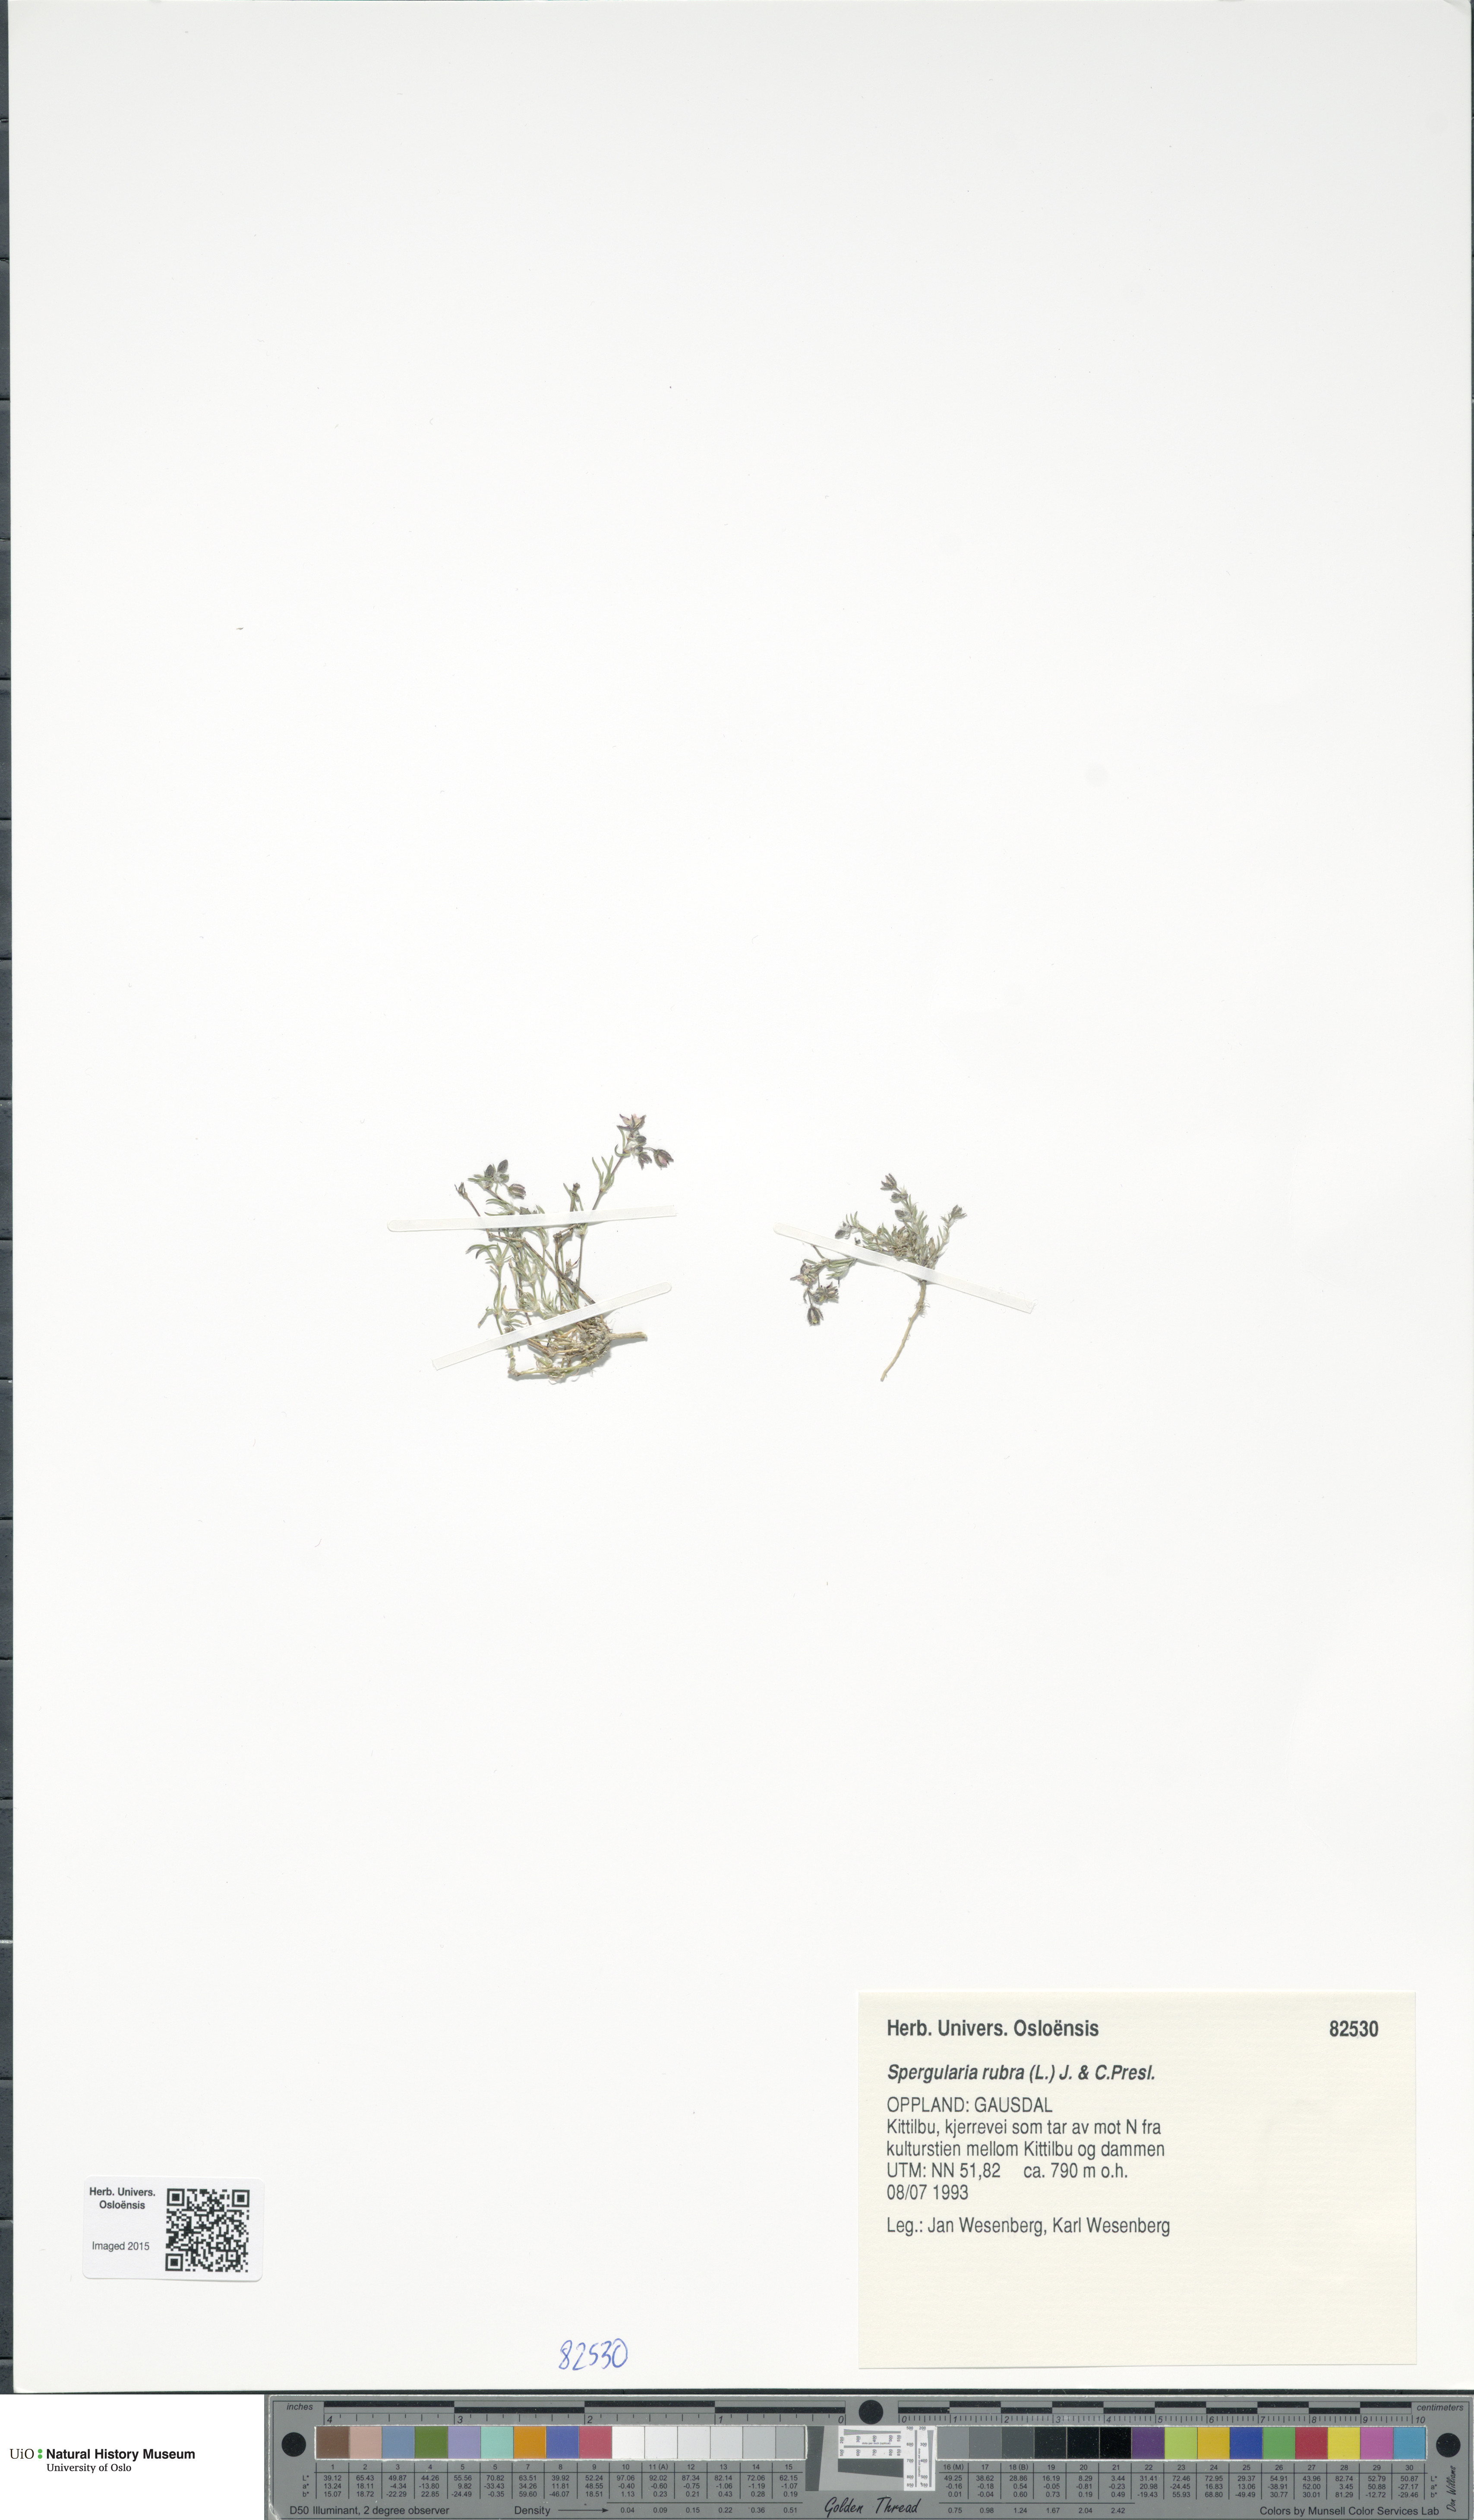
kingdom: Plantae
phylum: Tracheophyta
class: Magnoliopsida
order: Caryophyllales
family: Caryophyllaceae
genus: Spergularia
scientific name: Spergularia rubra
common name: Red sand-spurrey
